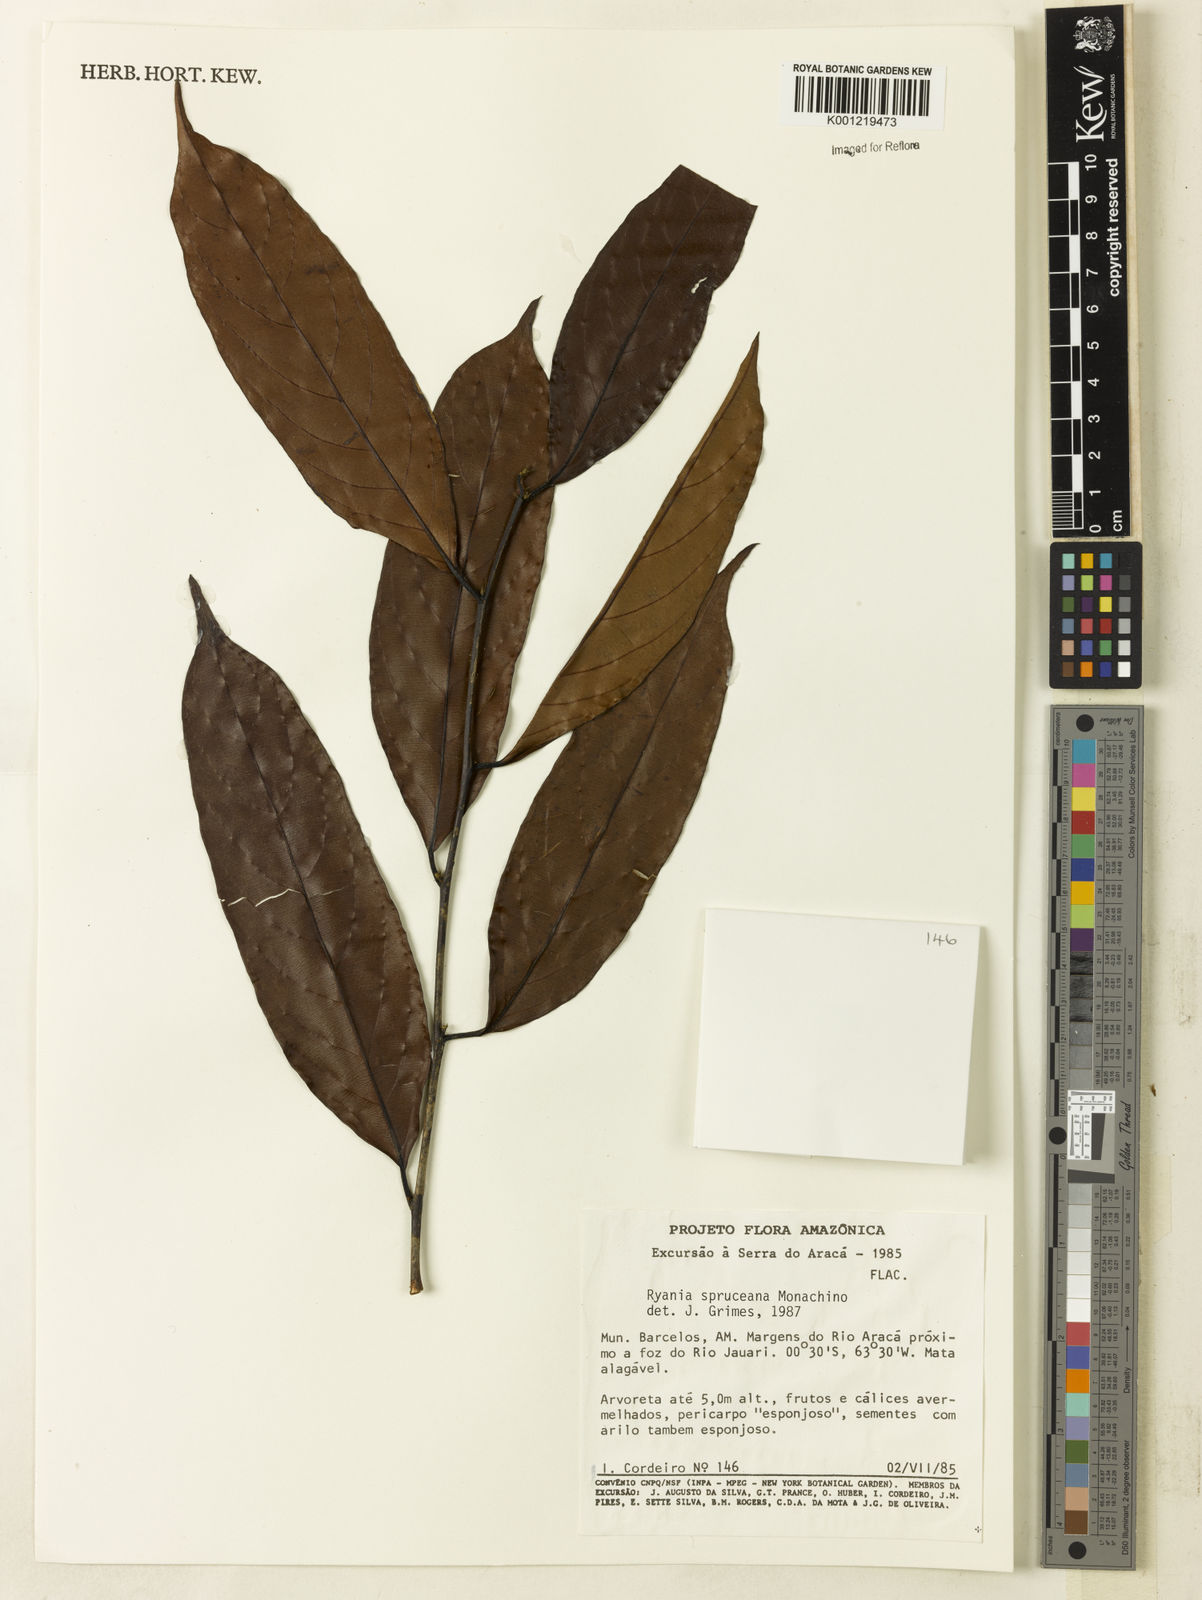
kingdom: Plantae
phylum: Tracheophyta
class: Magnoliopsida
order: Malpighiales
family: Salicaceae
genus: Ryania
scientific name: Ryania spruceana
